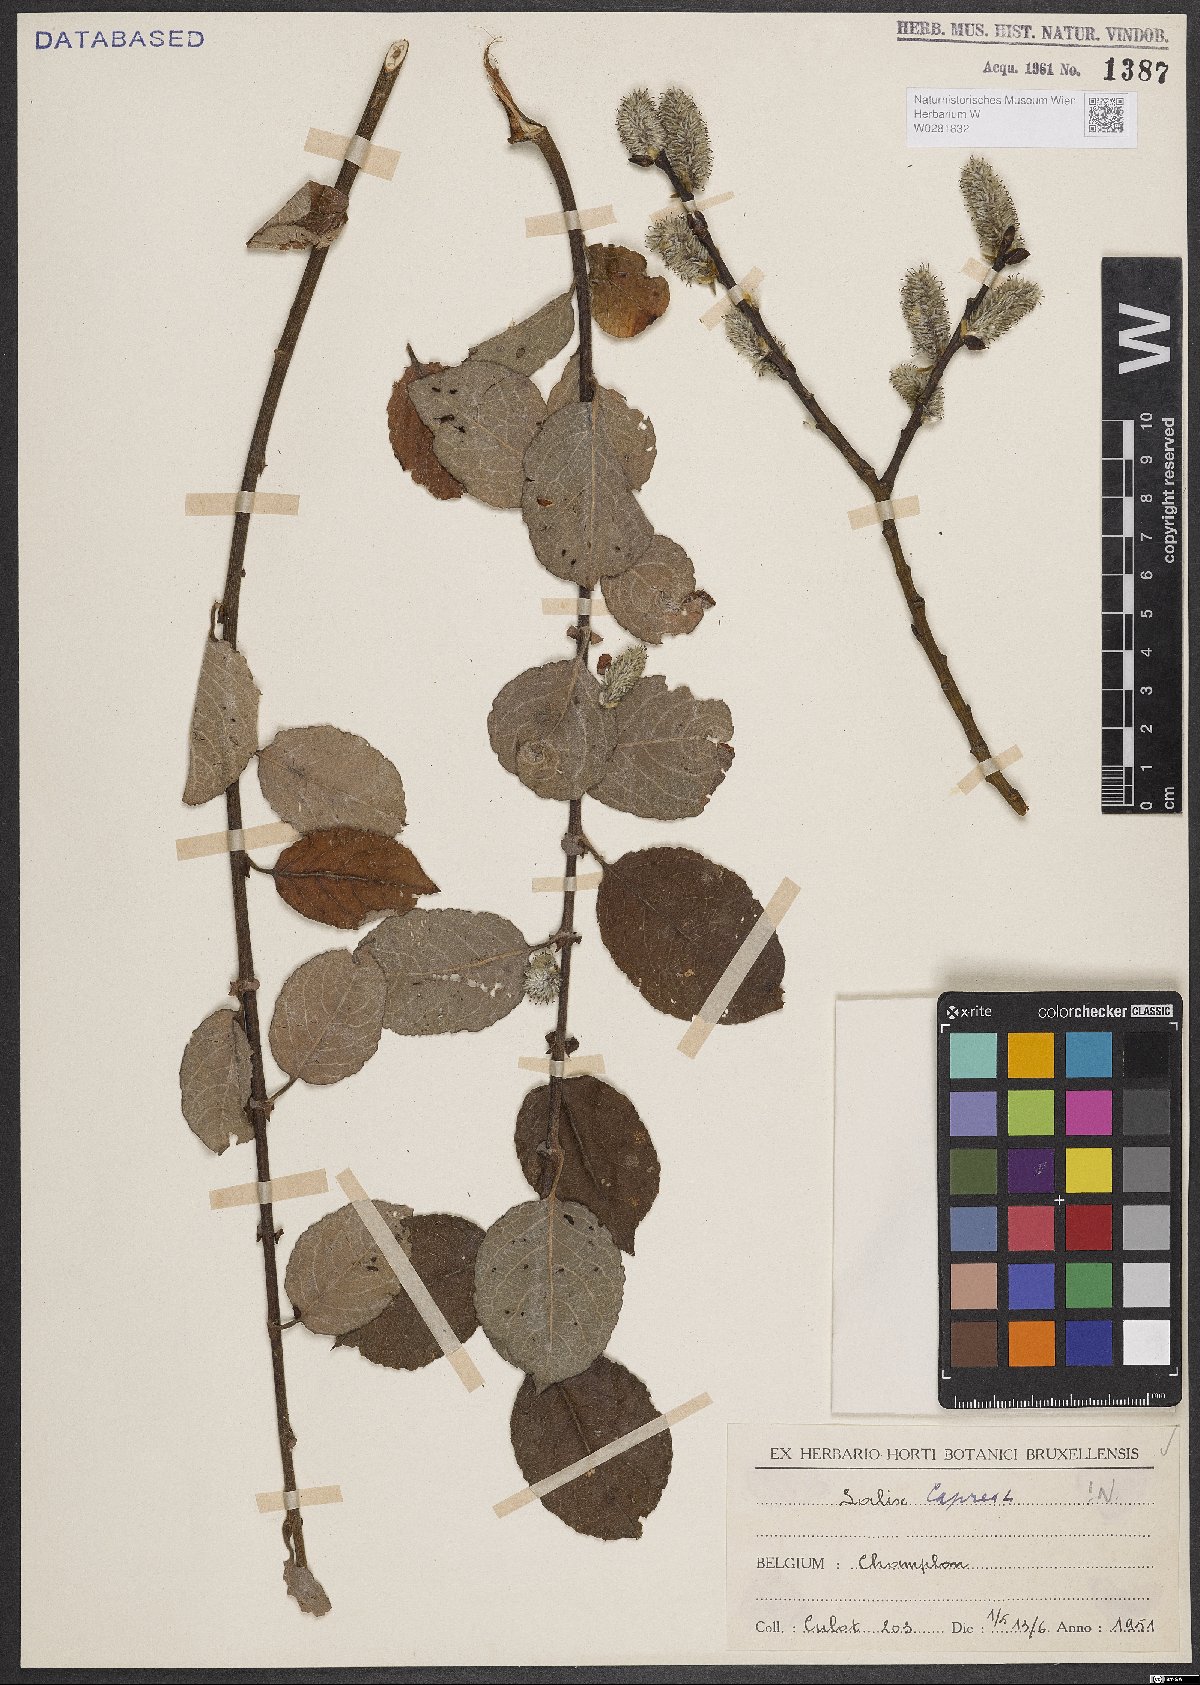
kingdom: Plantae
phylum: Tracheophyta
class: Magnoliopsida
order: Malpighiales
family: Salicaceae
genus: Salix
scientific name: Salix caprea
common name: Goat willow
